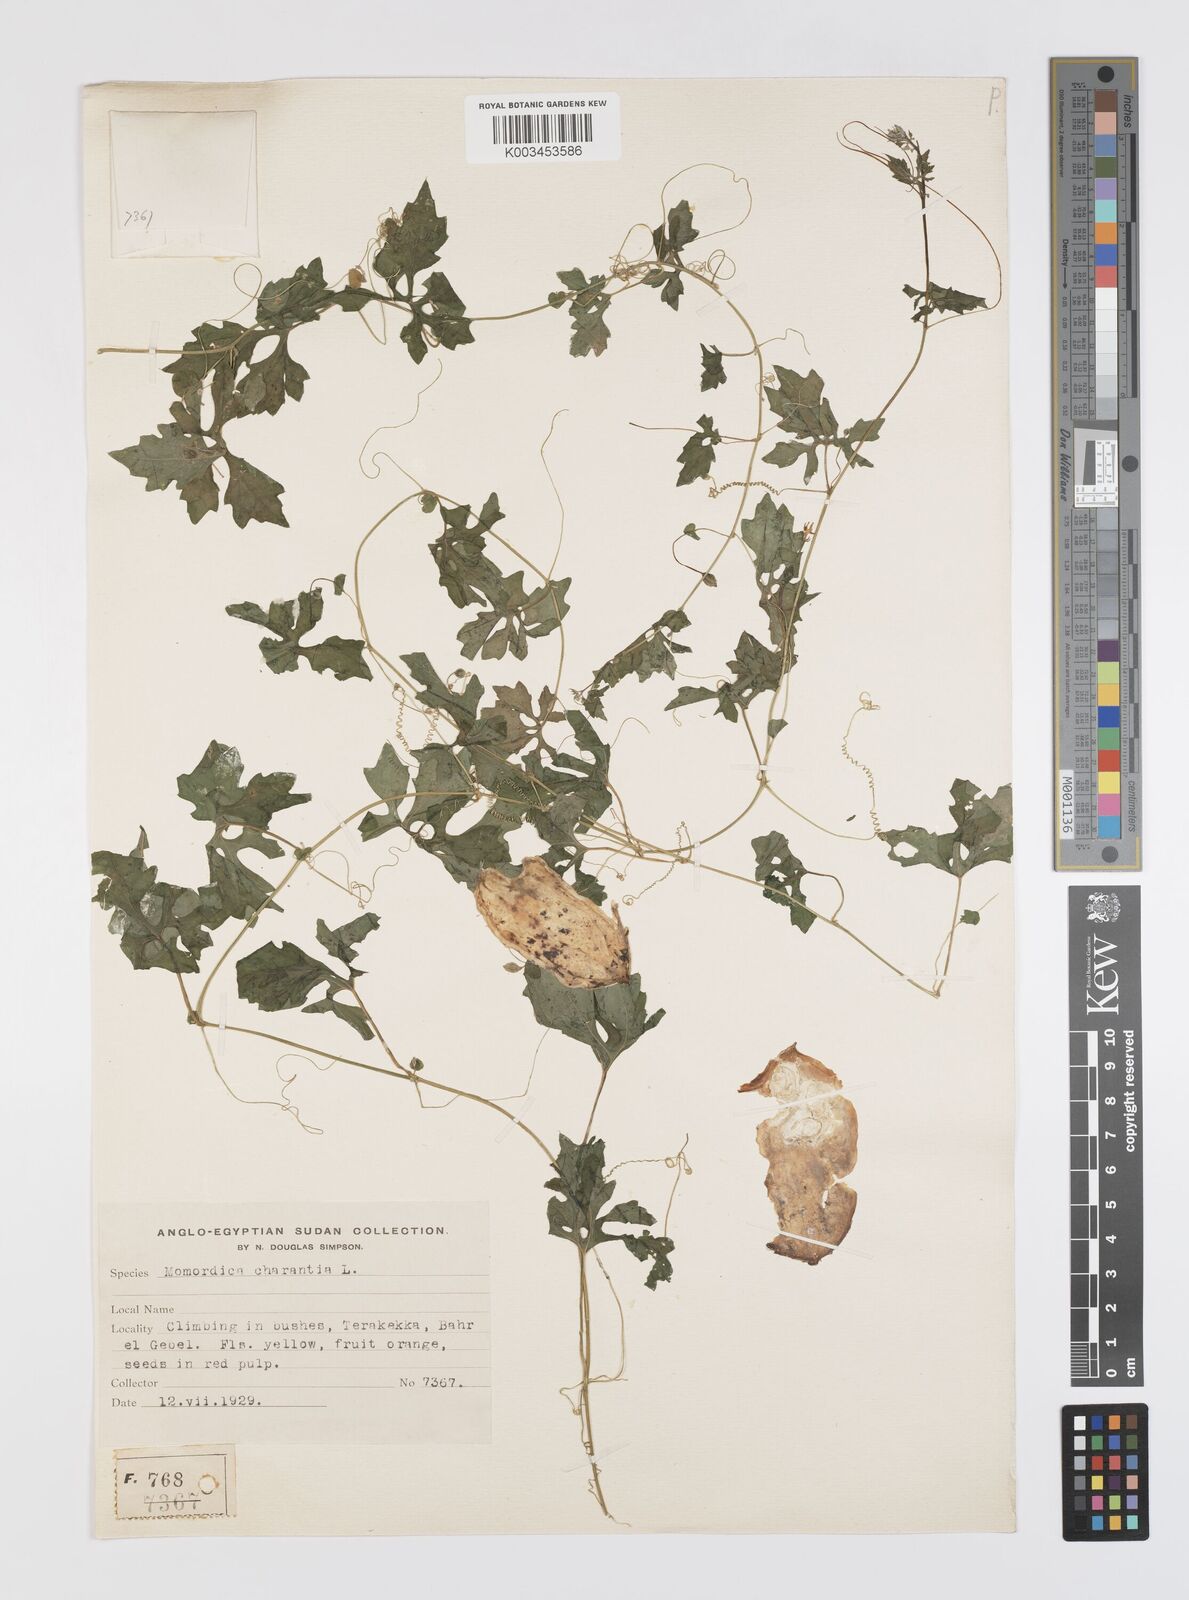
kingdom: Plantae
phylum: Tracheophyta
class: Magnoliopsida
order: Cucurbitales
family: Cucurbitaceae
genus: Momordica
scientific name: Momordica charantia
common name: Balsampear
